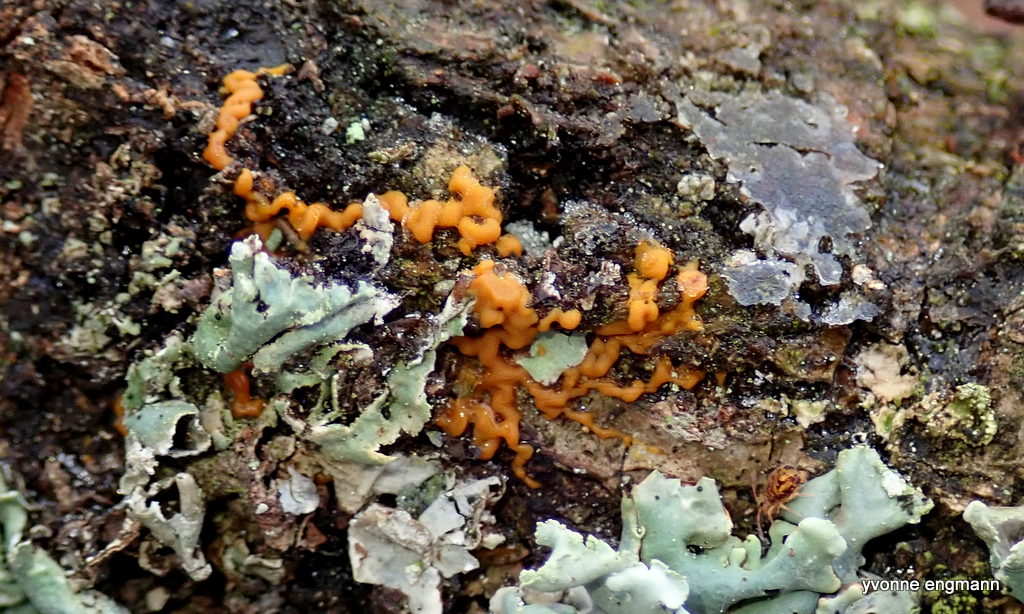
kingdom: Protozoa
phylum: Mycetozoa
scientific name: Mycetozoa
